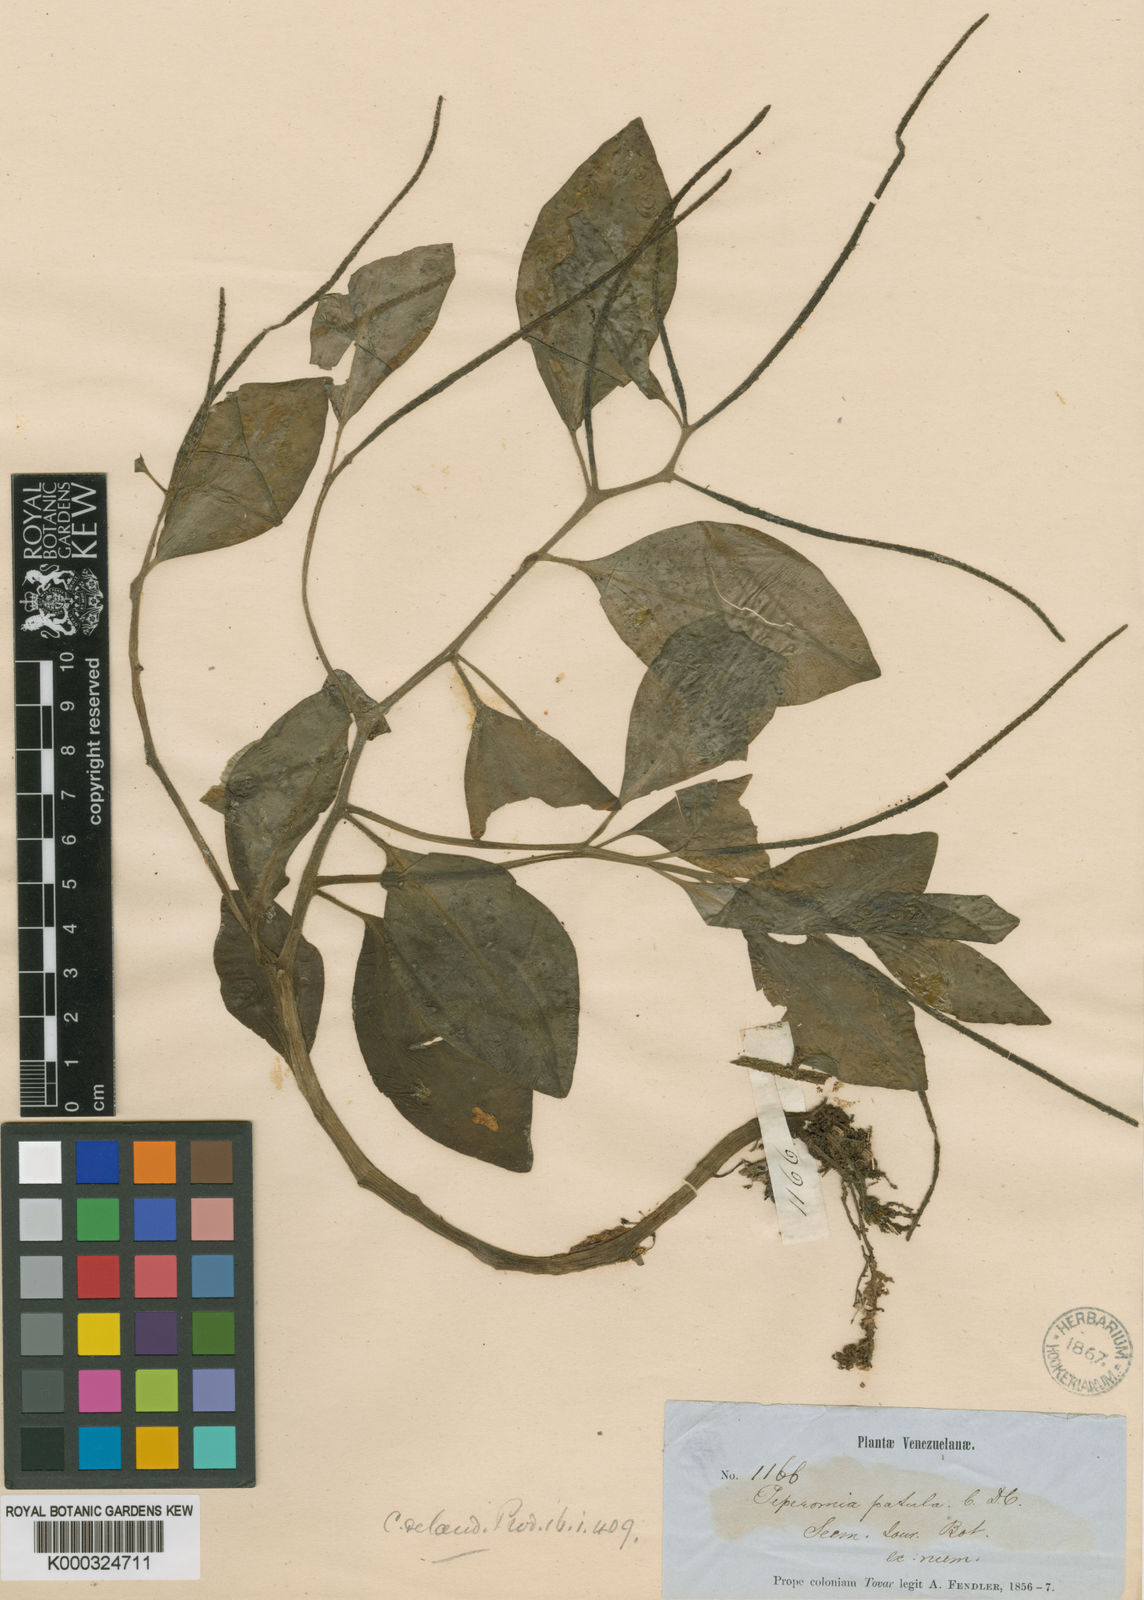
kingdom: Plantae
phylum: Tracheophyta
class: Magnoliopsida
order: Piperales
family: Piperaceae
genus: Peperomia
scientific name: Peperomia patula
